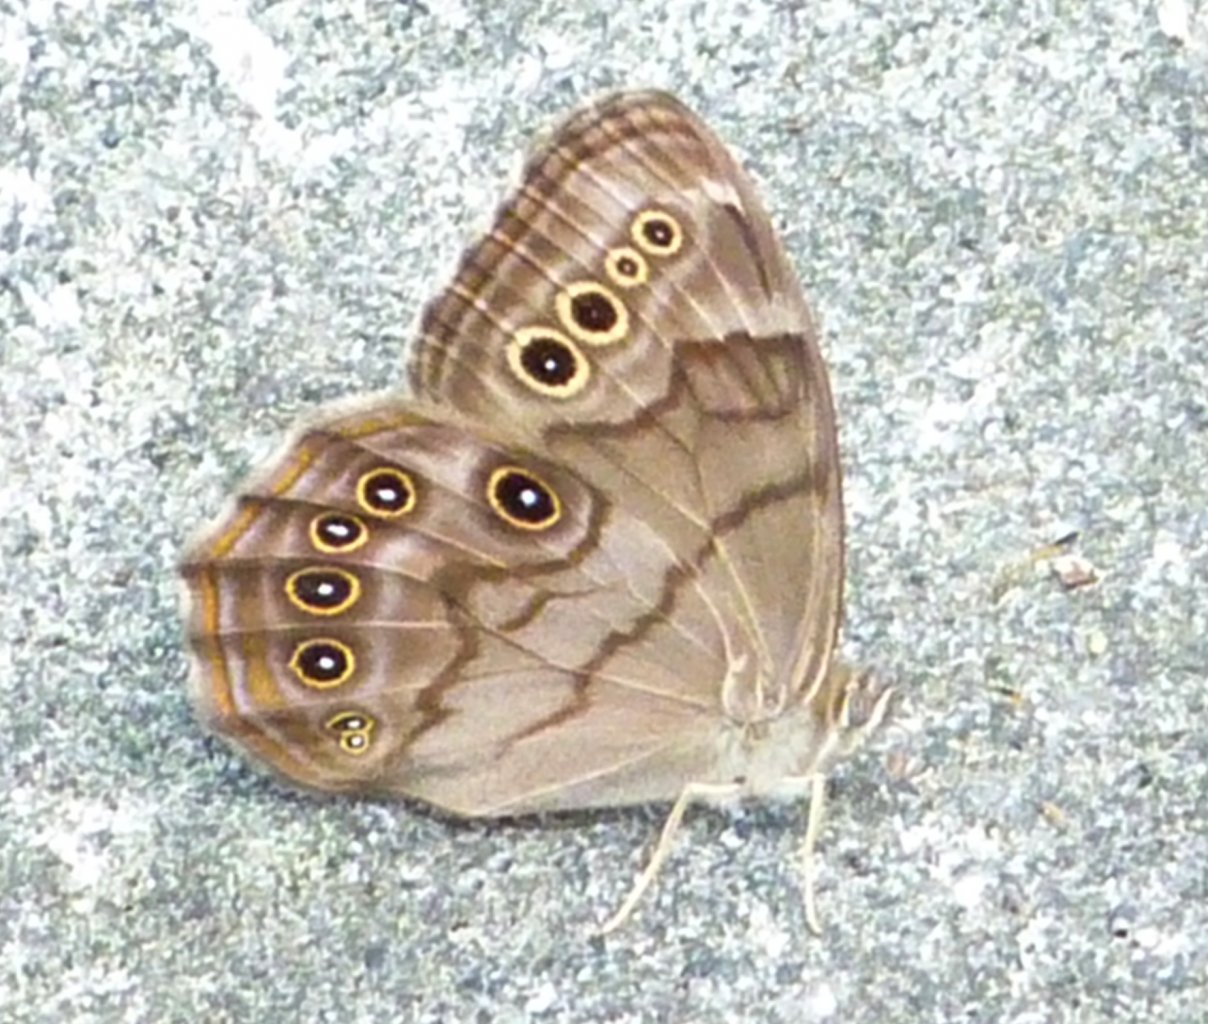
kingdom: Animalia
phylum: Arthropoda
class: Insecta
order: Lepidoptera
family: Nymphalidae
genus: Lethe
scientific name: Lethe anthedon
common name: Northern Pearly-Eye
